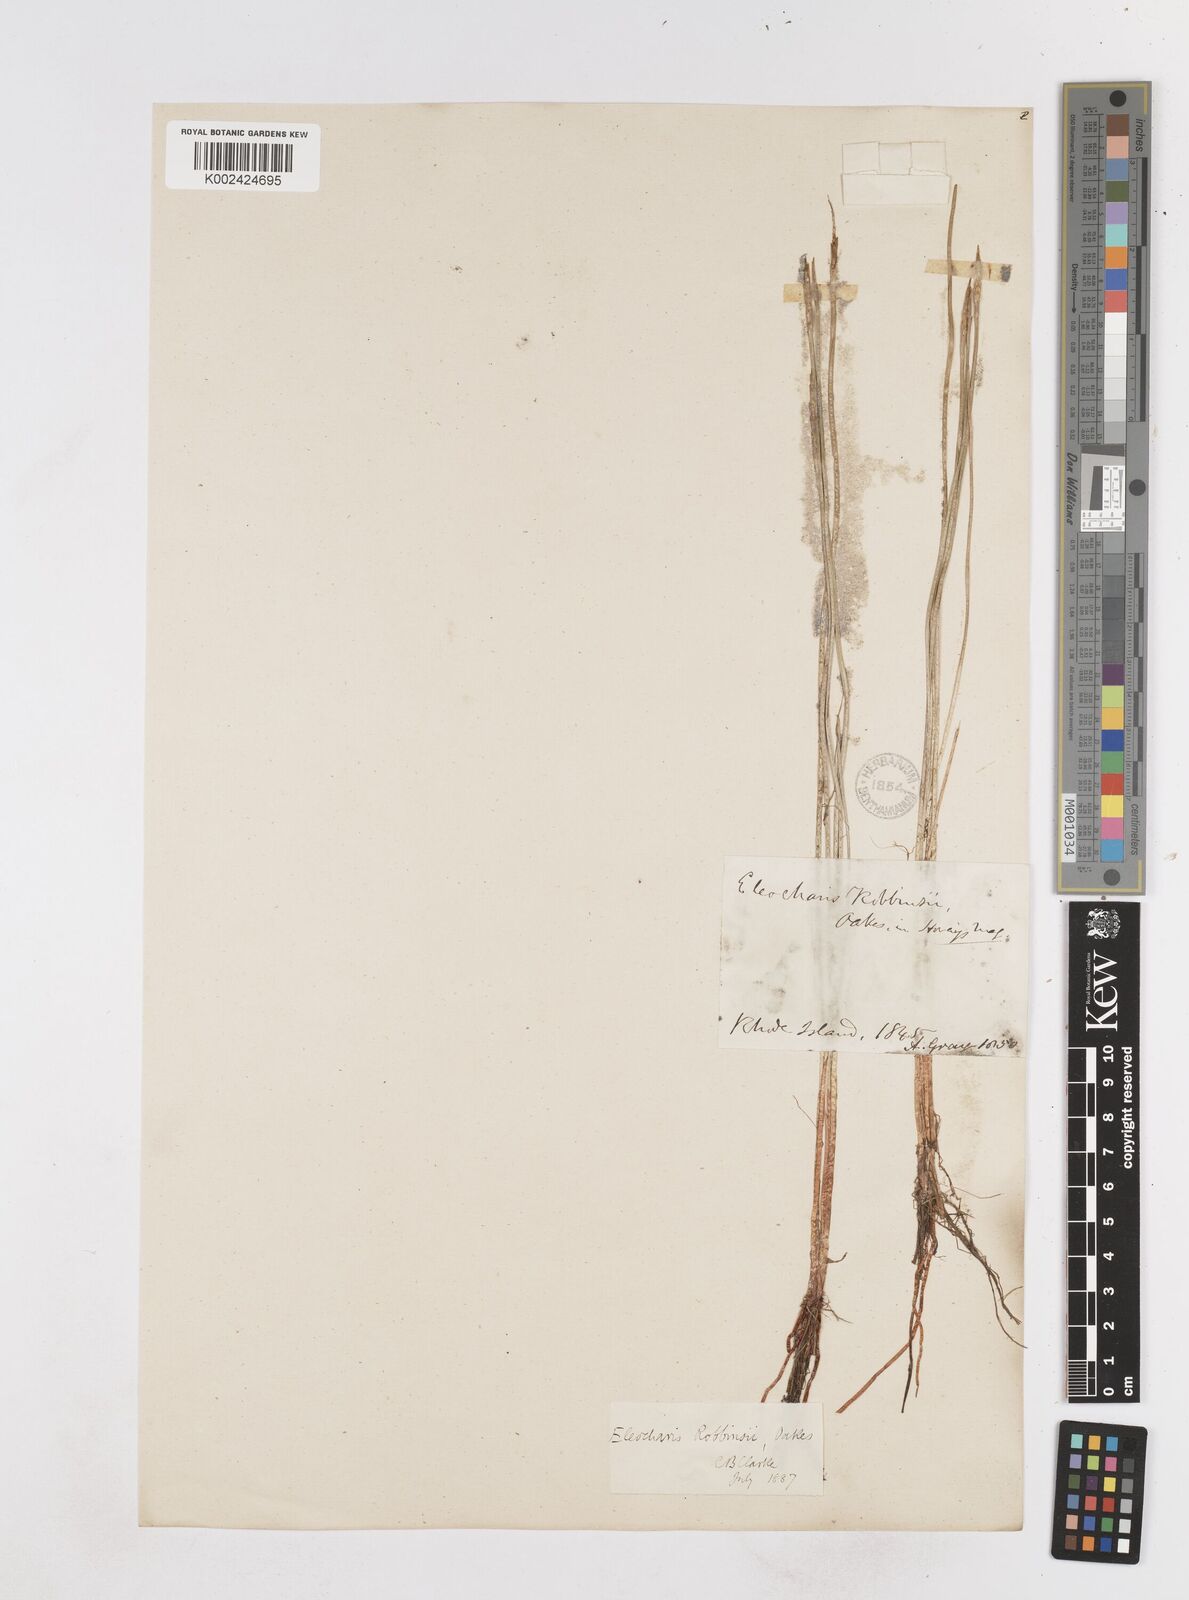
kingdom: Plantae
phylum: Tracheophyta
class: Liliopsida
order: Poales
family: Cyperaceae
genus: Eleocharis
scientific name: Eleocharis robbinsii
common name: Robbins' spikerush
